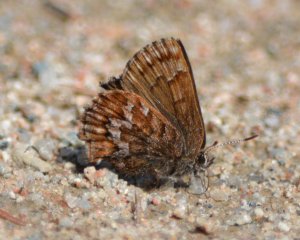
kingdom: Animalia
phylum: Arthropoda
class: Insecta
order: Lepidoptera
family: Lycaenidae
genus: Incisalia
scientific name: Incisalia niphon
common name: Eastern Pine Elfin
